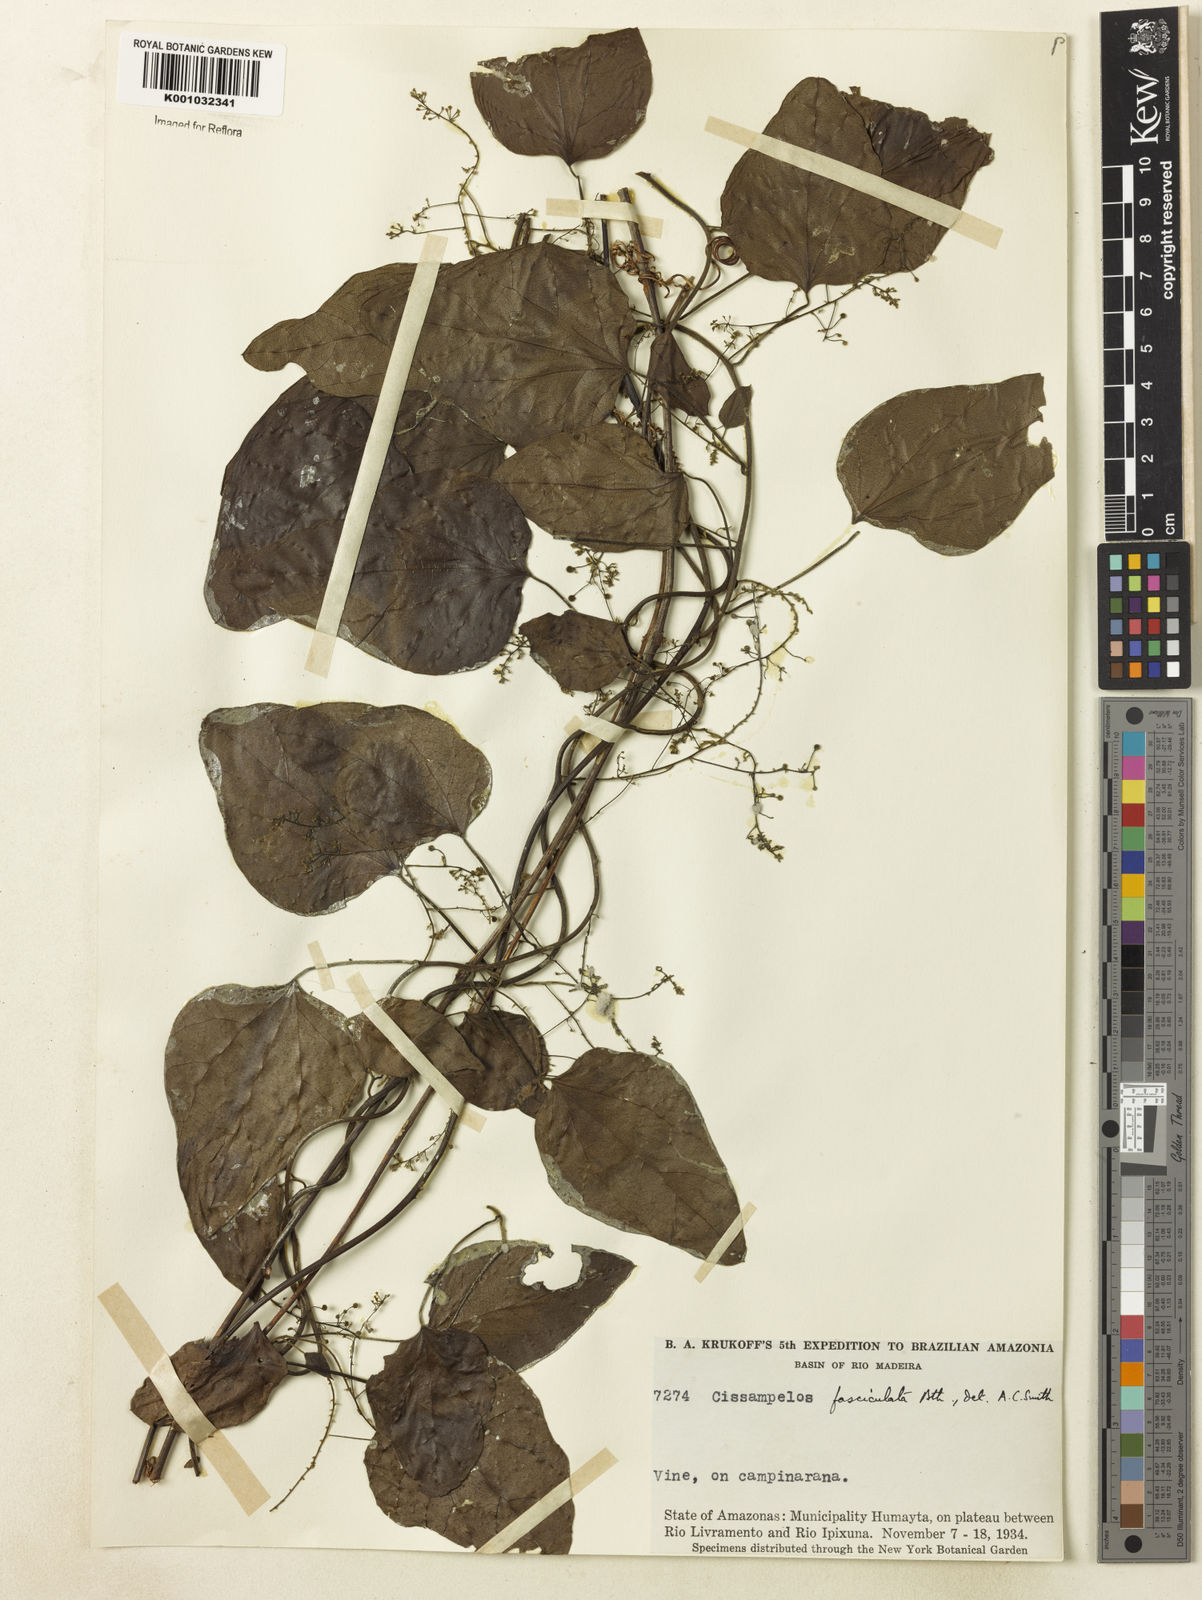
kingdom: Plantae
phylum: Tracheophyta
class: Magnoliopsida
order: Ranunculales
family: Menispermaceae
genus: Cissampelos
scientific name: Cissampelos fasciculata
